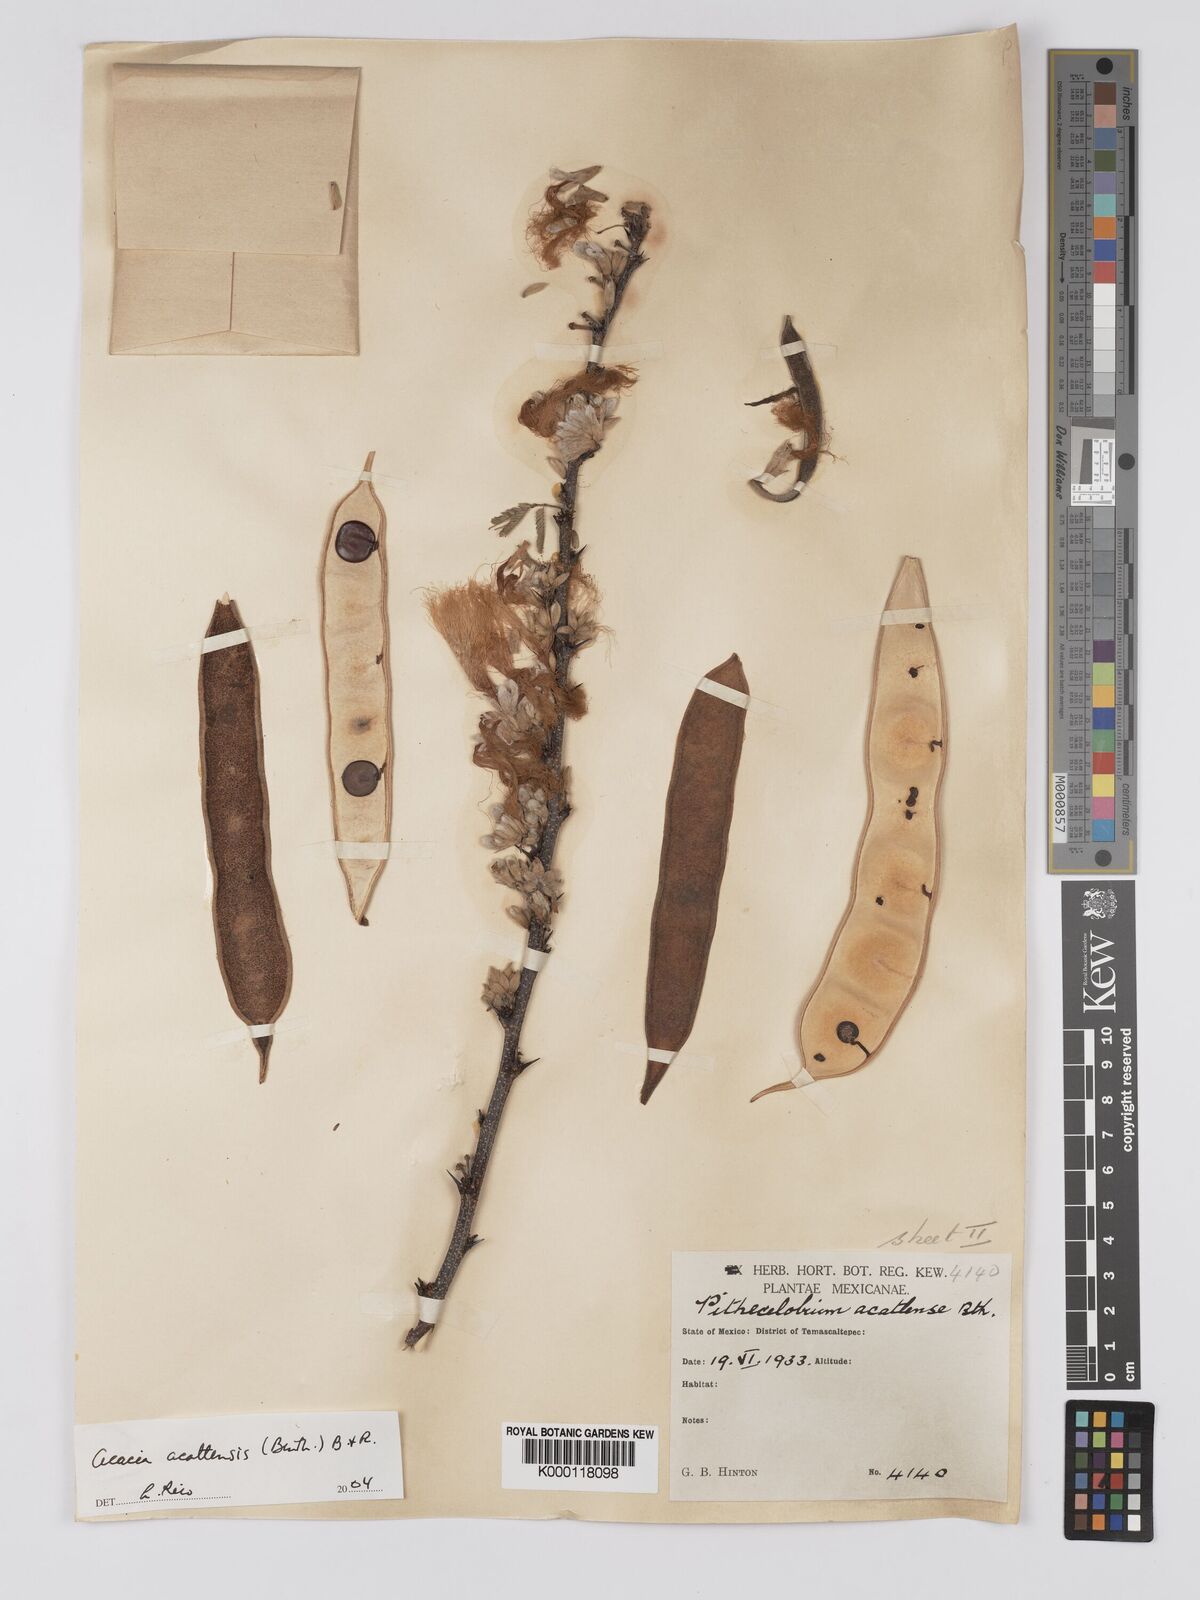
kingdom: Plantae
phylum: Tracheophyta
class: Magnoliopsida
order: Fabales
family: Fabaceae
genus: Havardia
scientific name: Havardia acatlensis
